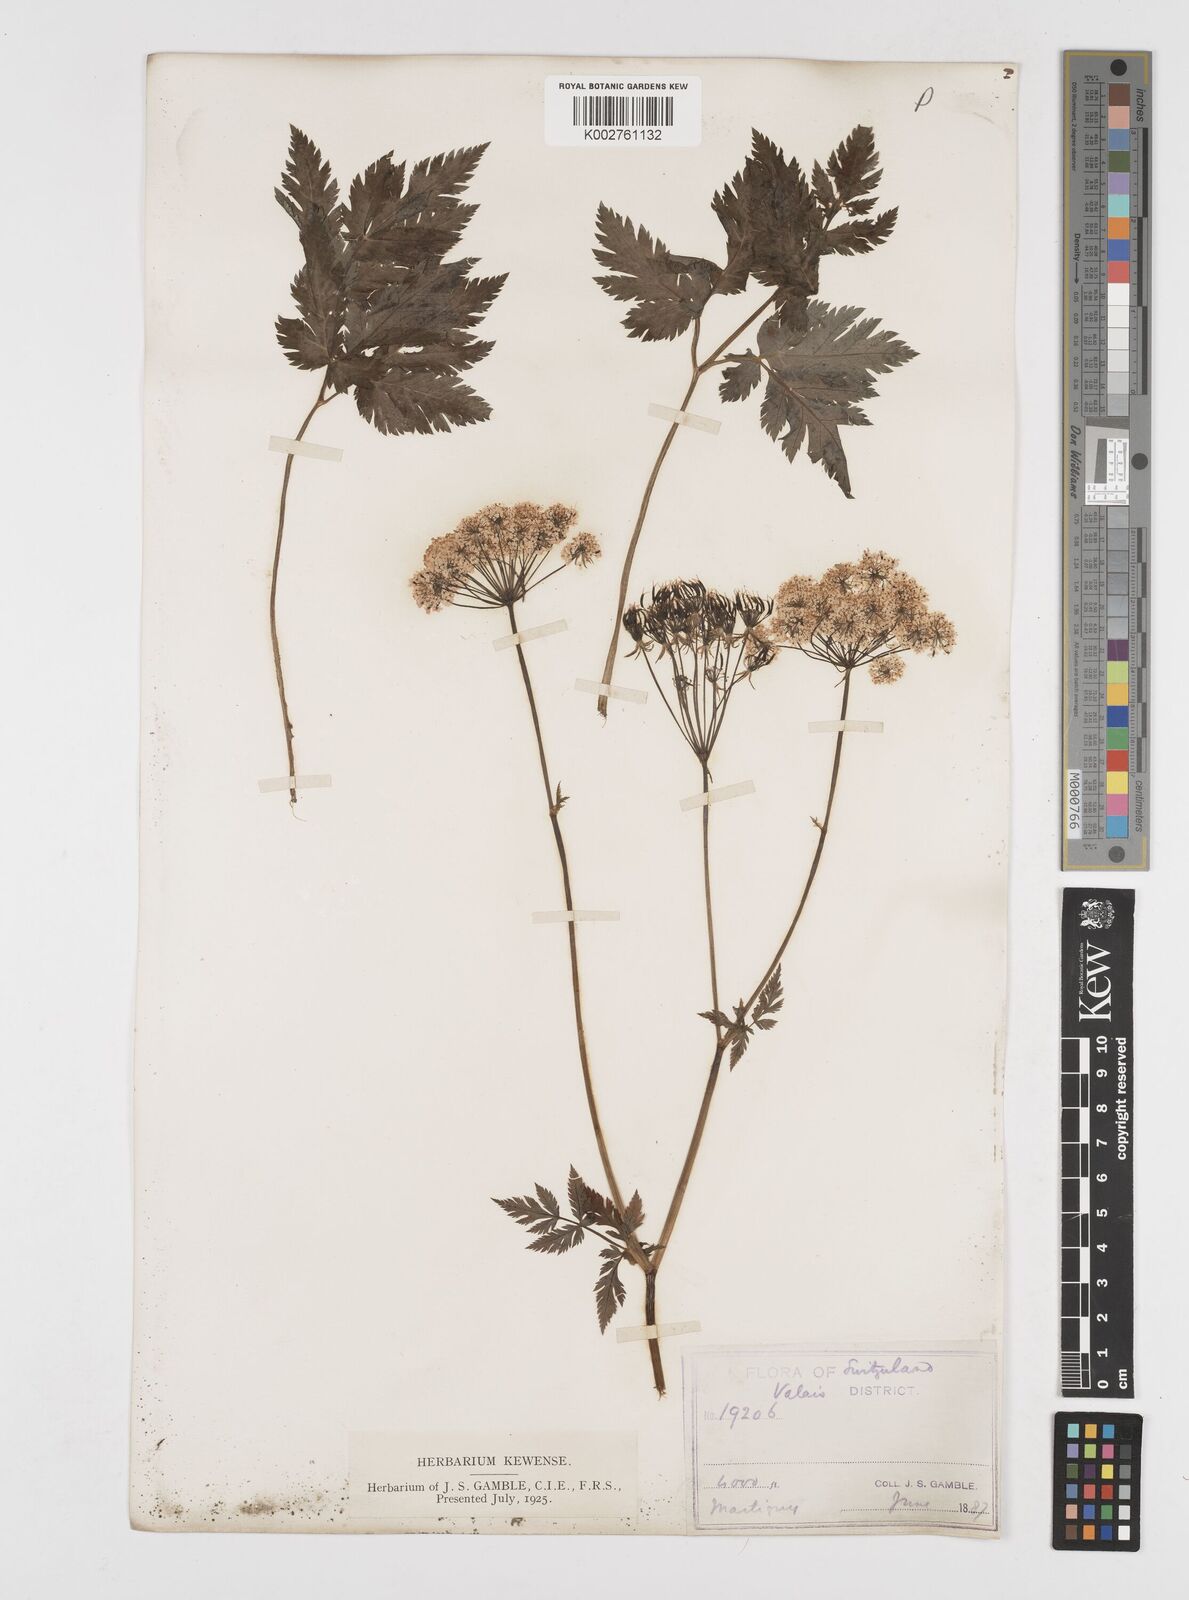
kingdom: Plantae
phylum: Tracheophyta
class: Magnoliopsida
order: Apiales
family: Apiaceae
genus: Chaerophyllum
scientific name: Chaerophyllum hirsutum
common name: Hairy chervil
